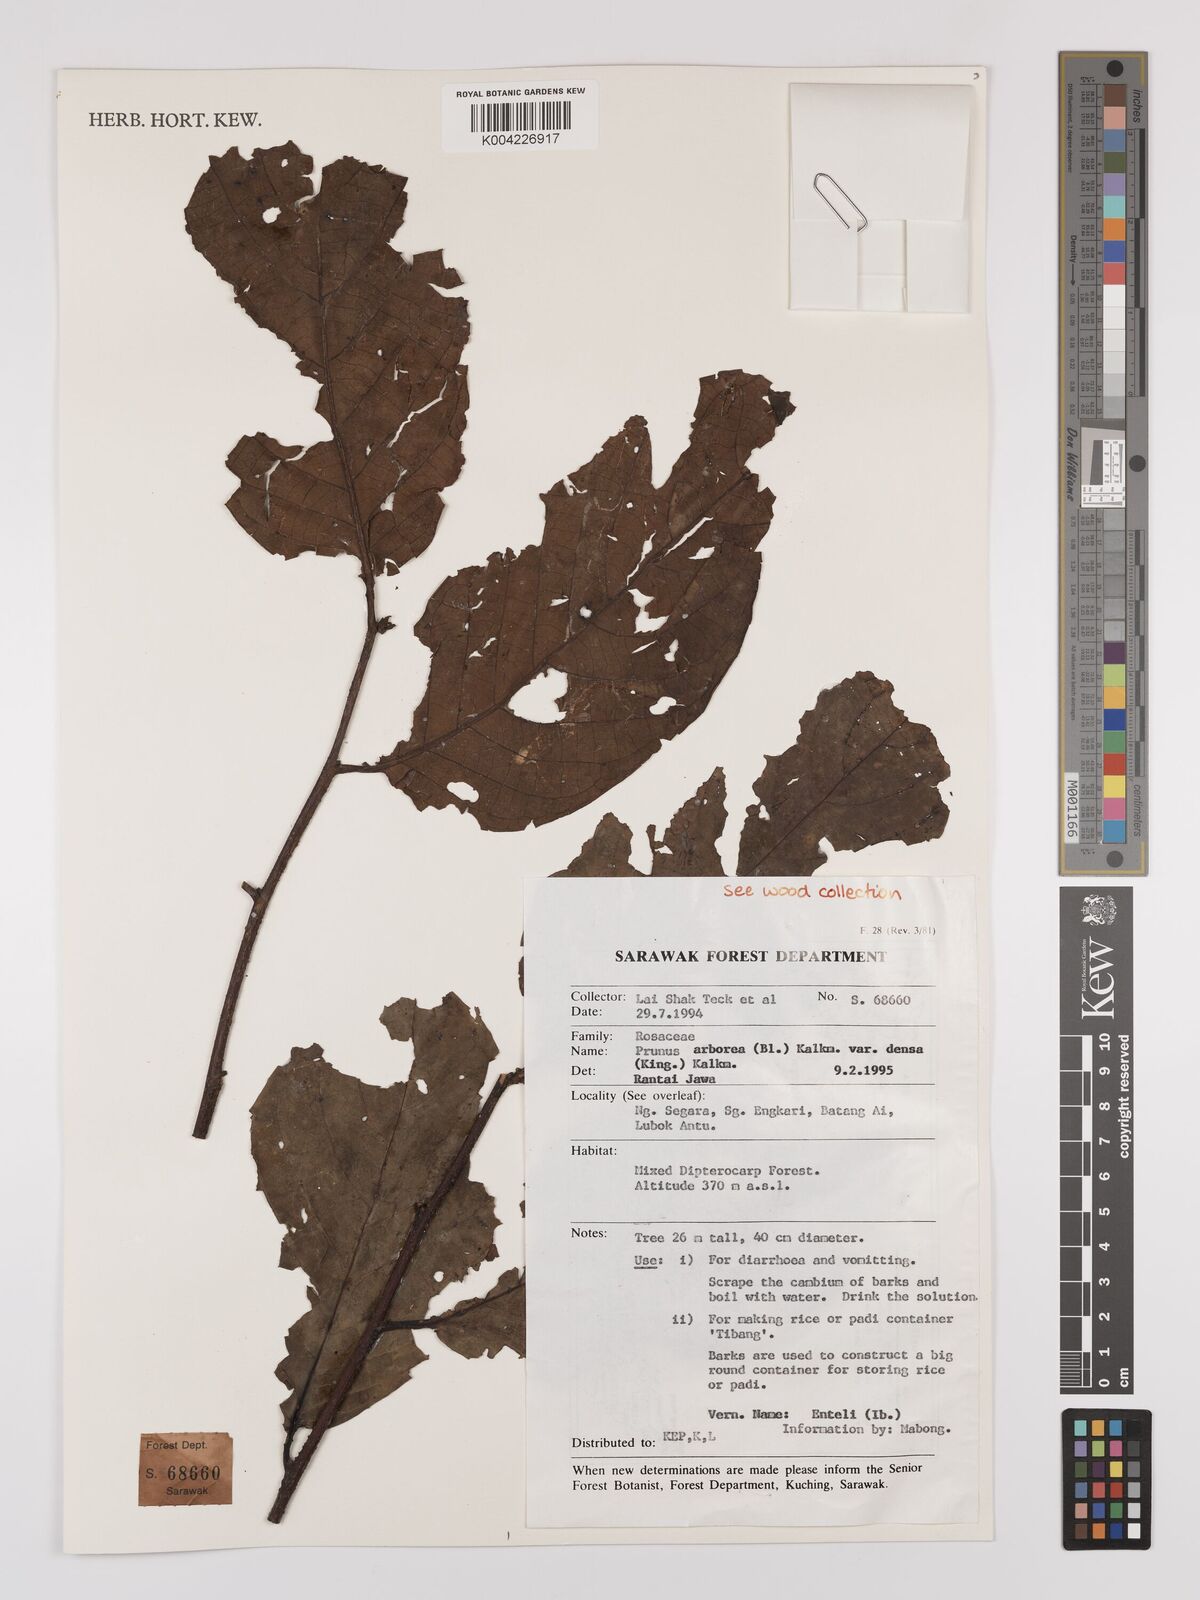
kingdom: Plantae
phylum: Tracheophyta
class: Magnoliopsida
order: Rosales
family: Rosaceae
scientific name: Rosaceae
